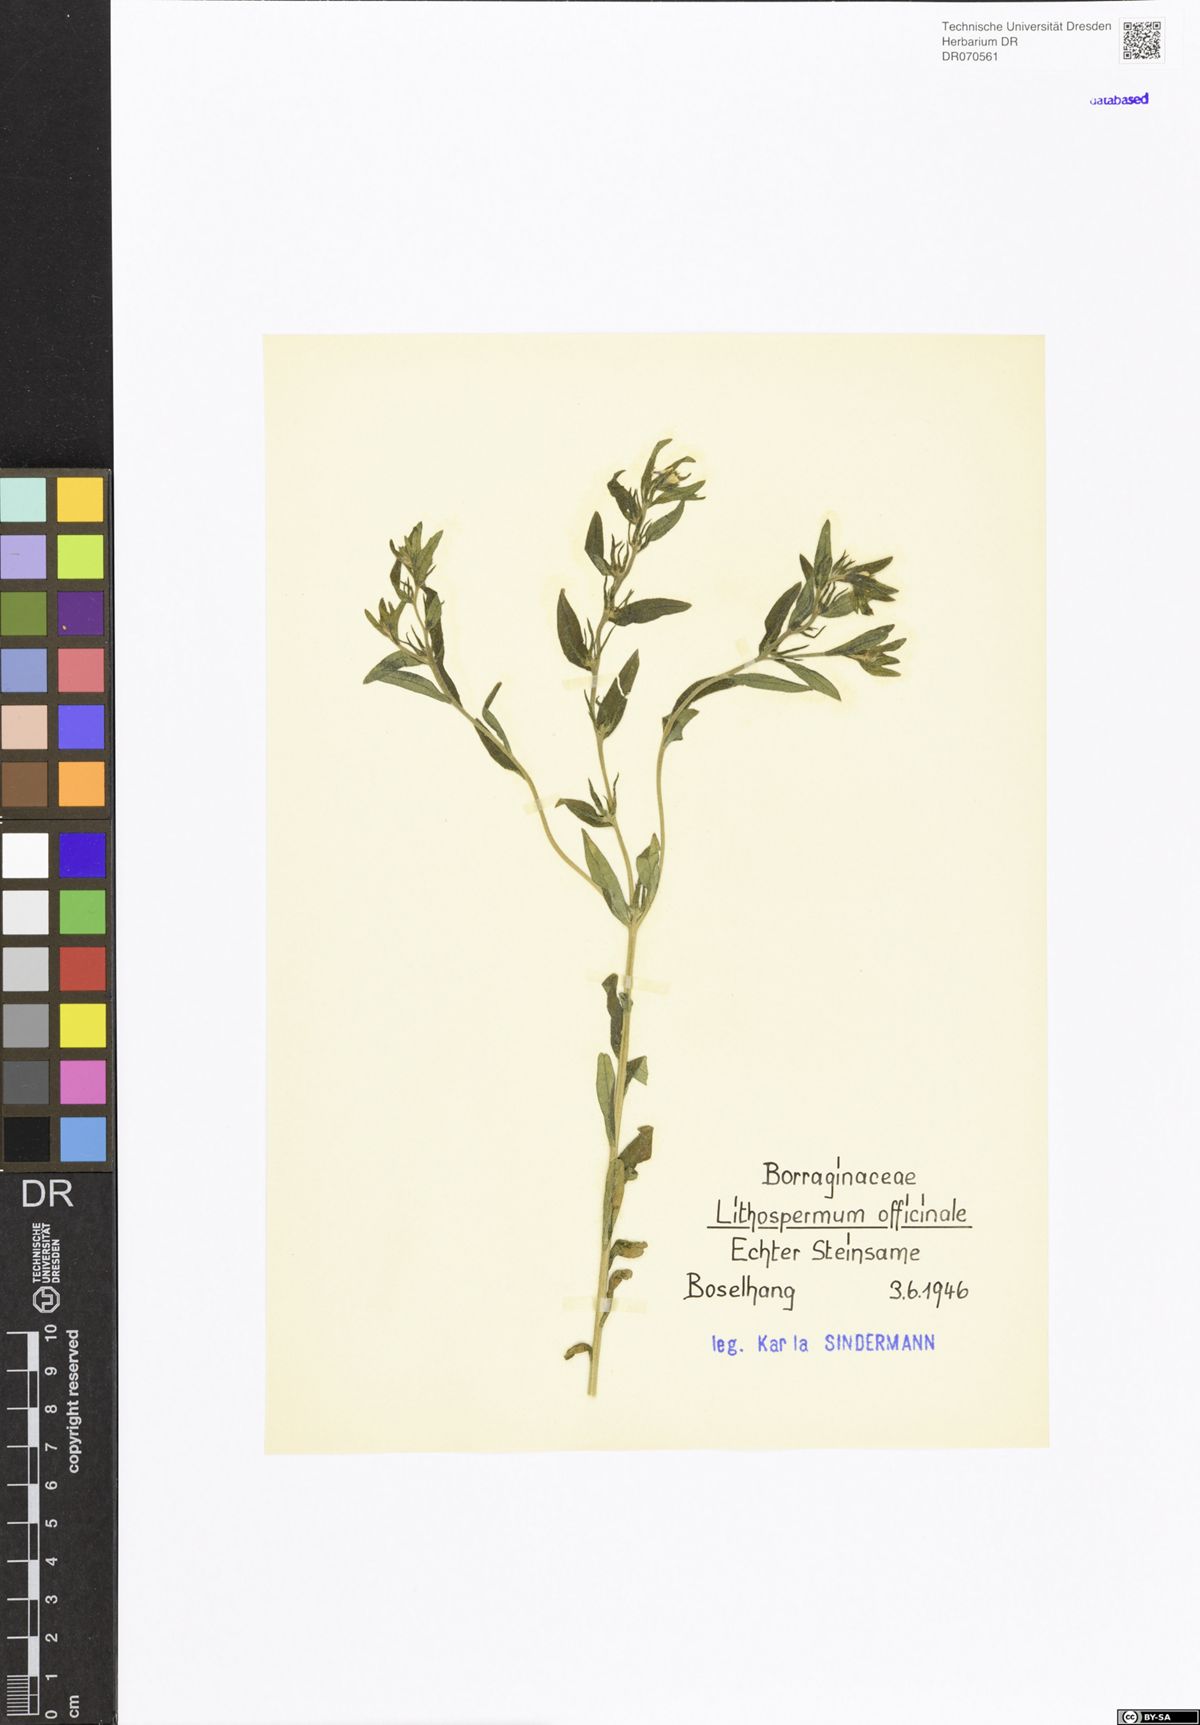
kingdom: Plantae
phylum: Tracheophyta
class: Magnoliopsida
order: Boraginales
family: Boraginaceae
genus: Lithospermum
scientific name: Lithospermum officinale
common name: Common gromwell
